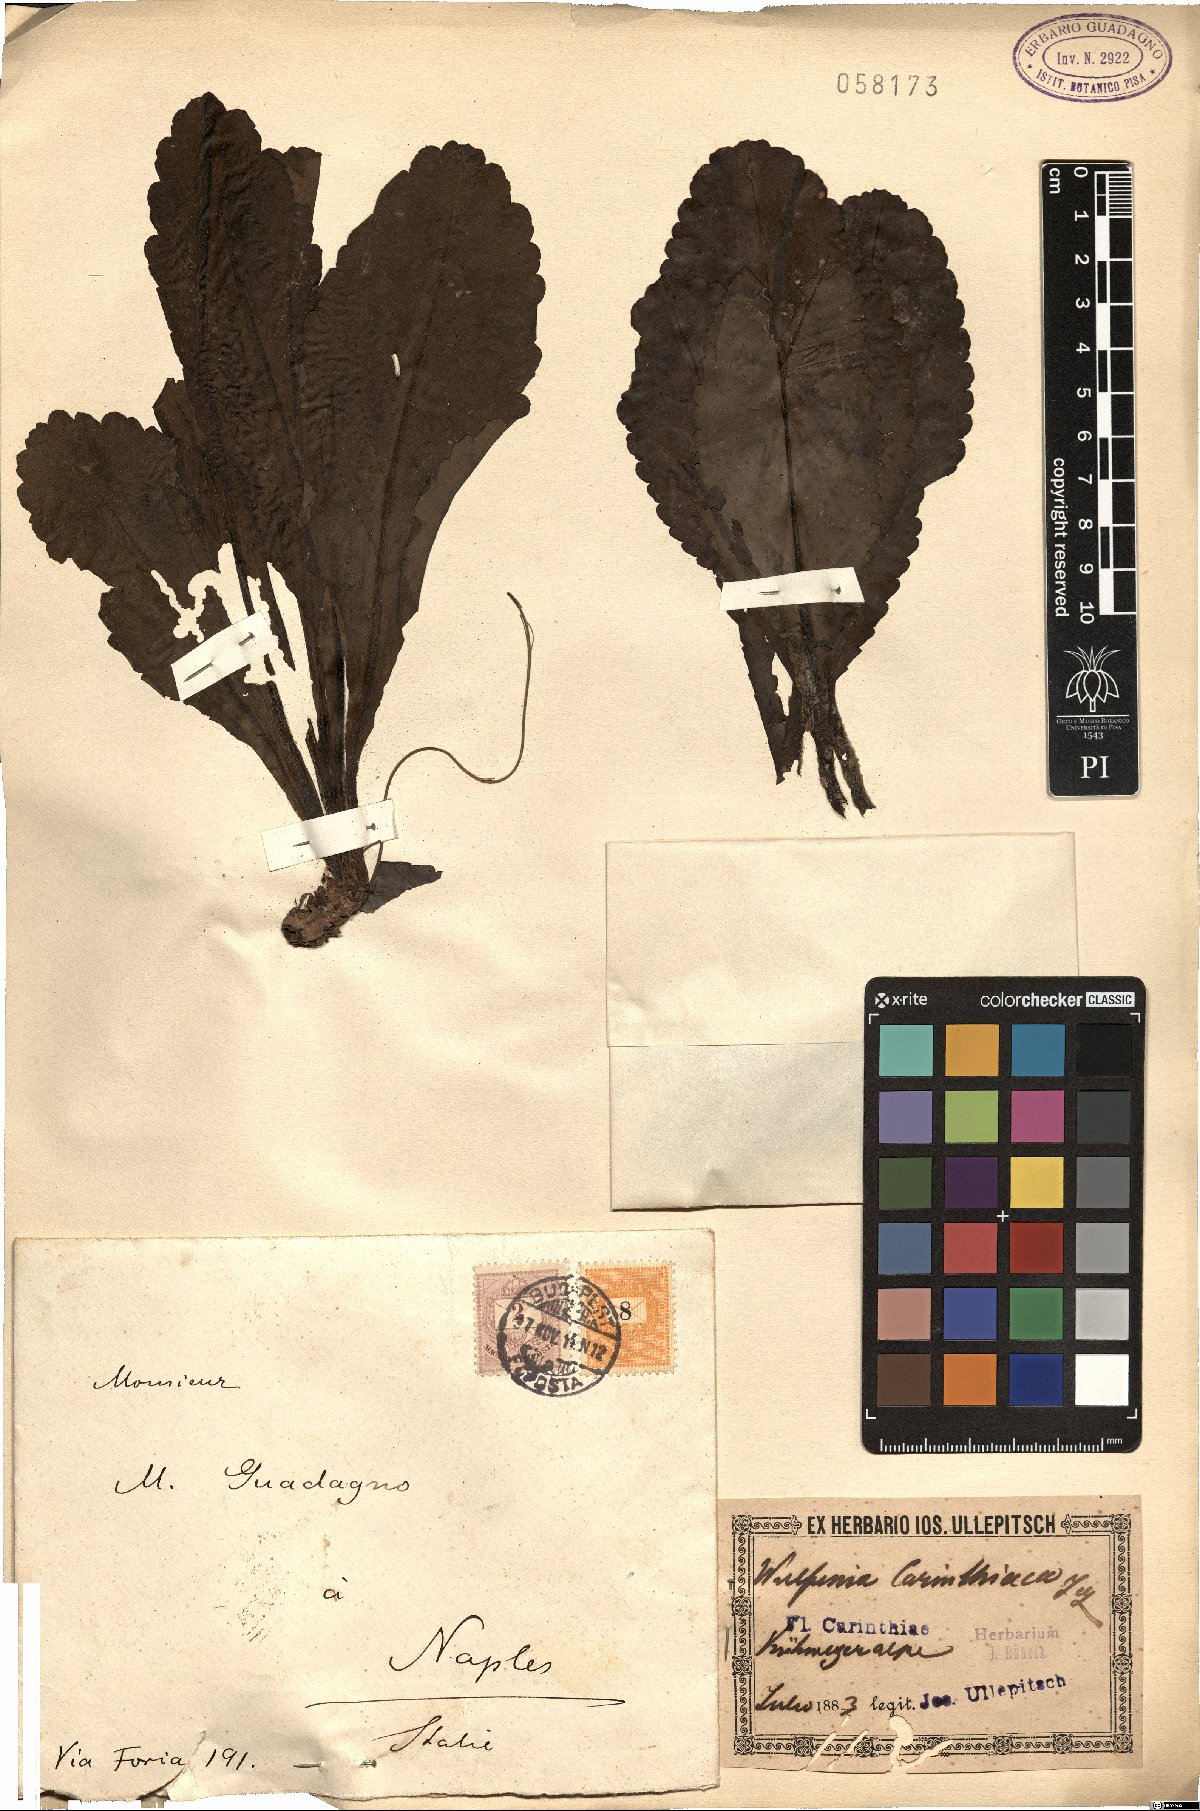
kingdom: Plantae
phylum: Tracheophyta
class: Magnoliopsida
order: Lamiales
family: Plantaginaceae
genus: Wulfenia
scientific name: Wulfenia carinthiaca
